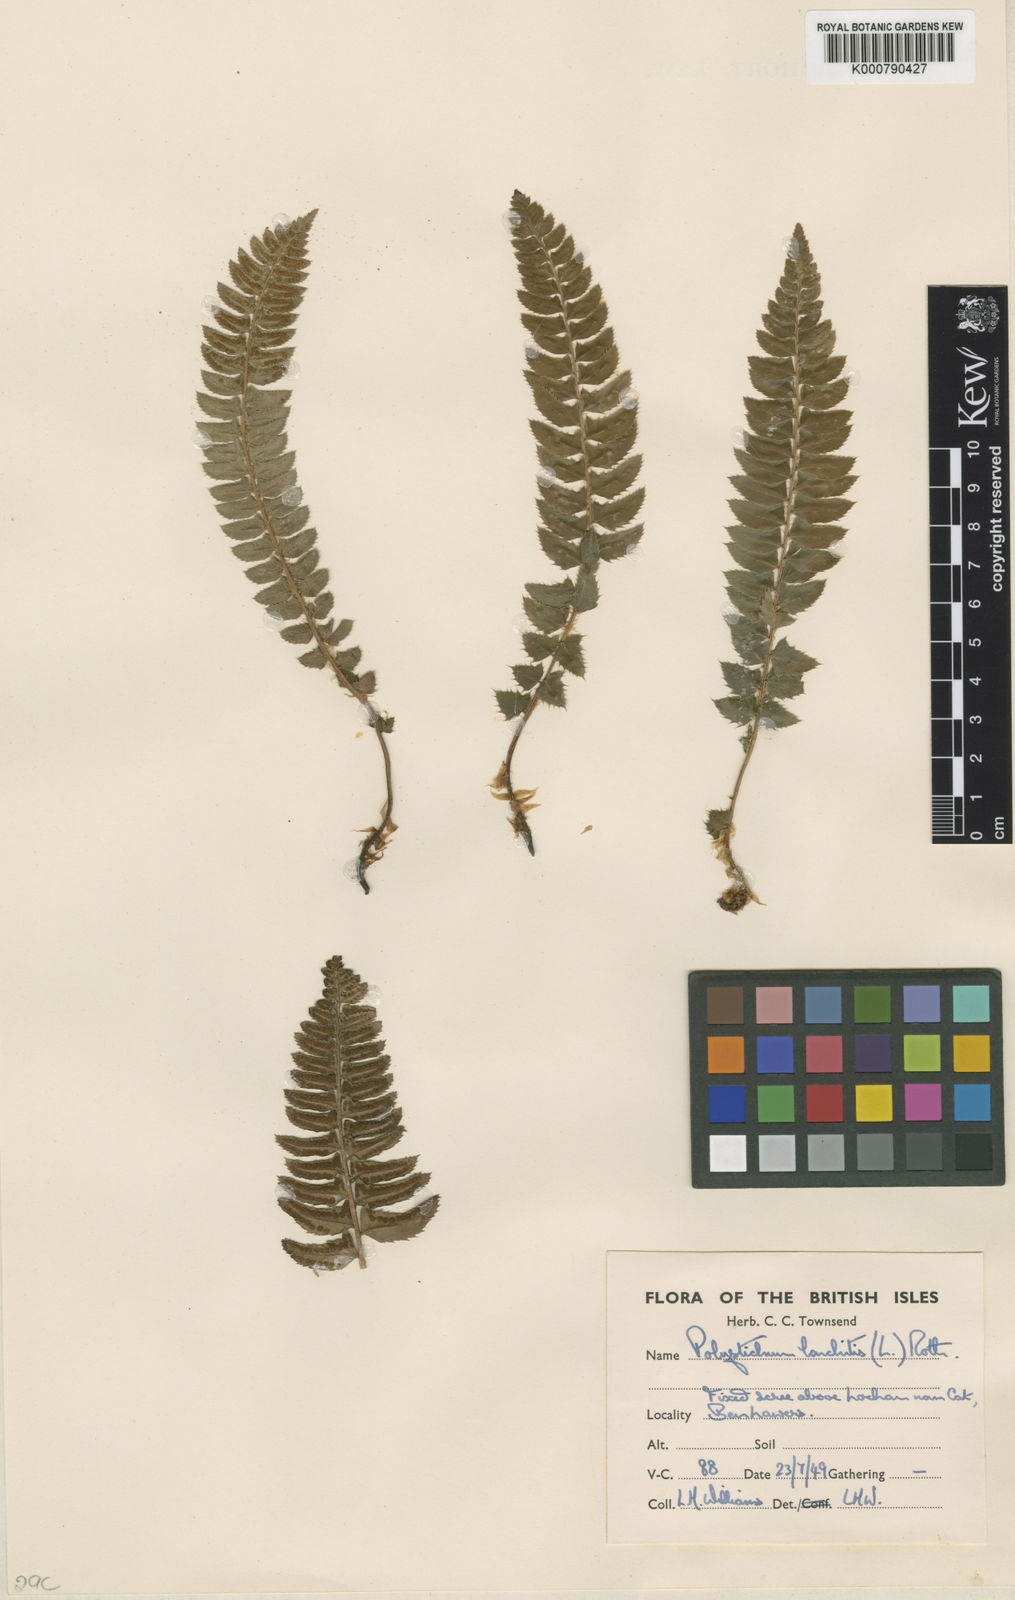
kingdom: Plantae
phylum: Tracheophyta
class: Polypodiopsida
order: Polypodiales
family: Dryopteridaceae
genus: Polystichum
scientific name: Polystichum
